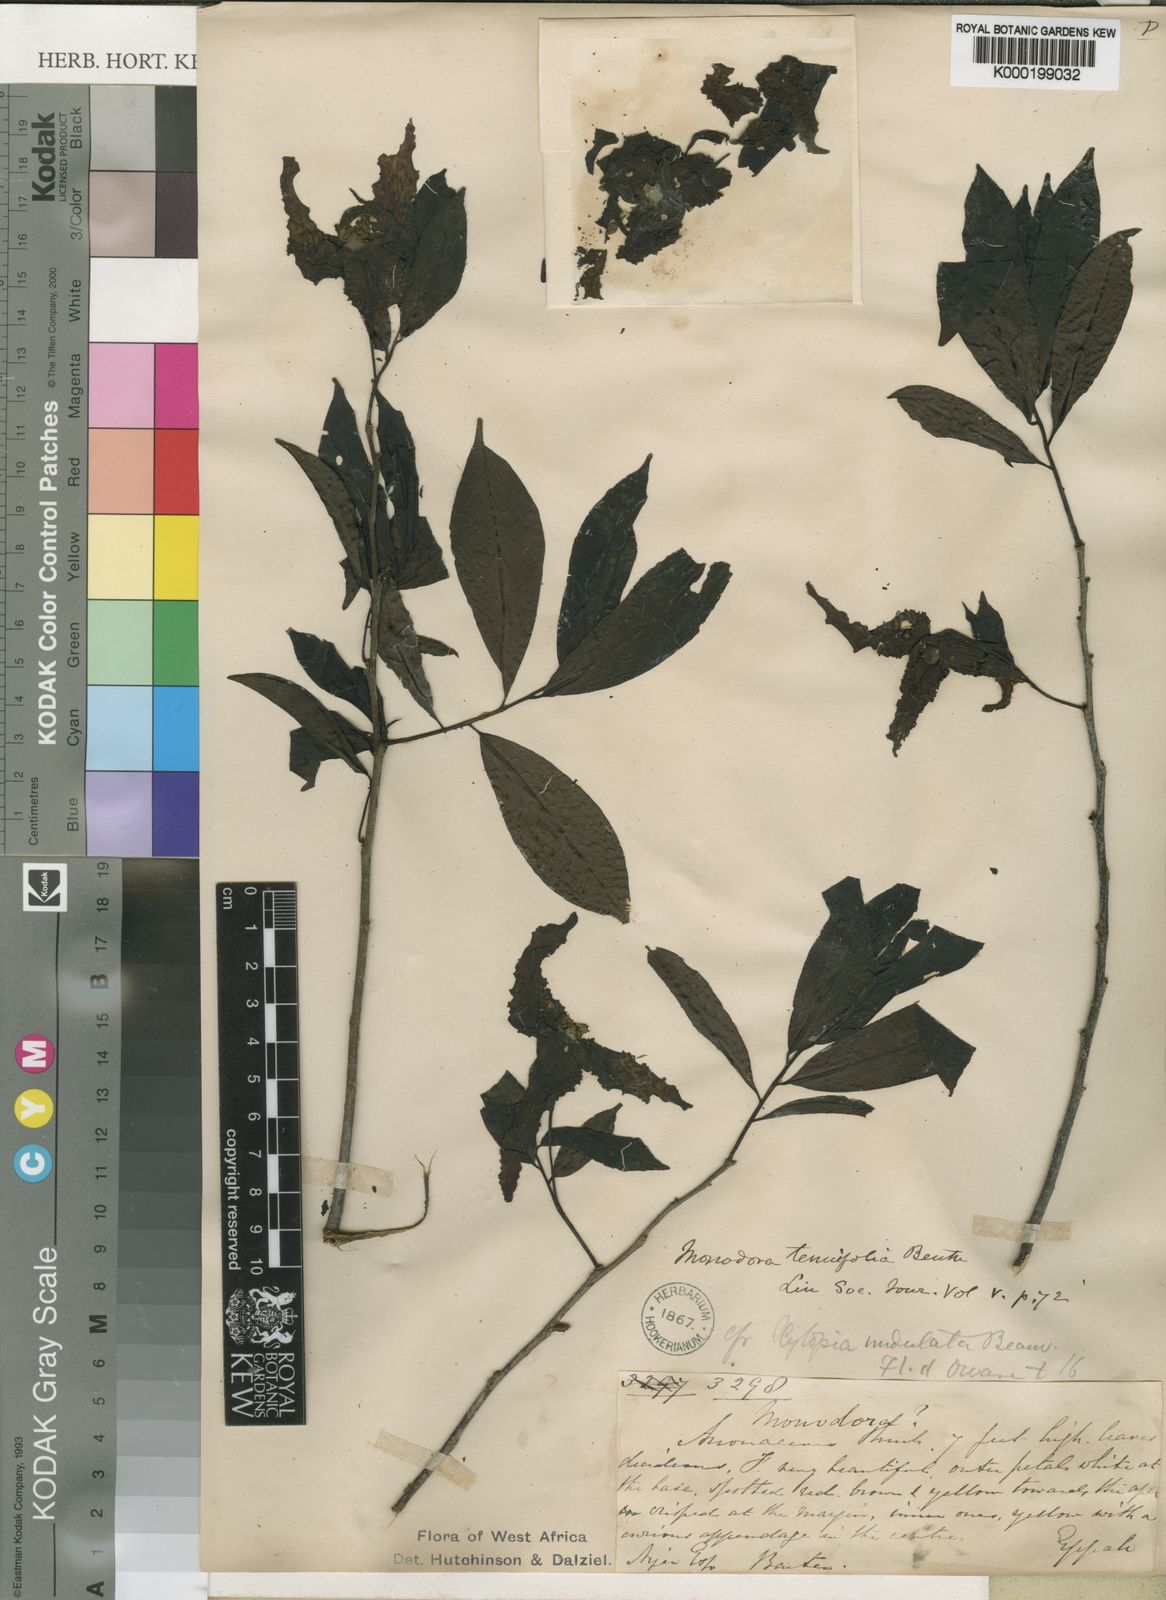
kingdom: Plantae
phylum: Tracheophyta
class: Magnoliopsida
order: Magnoliales
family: Annonaceae
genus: Monodora
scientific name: Monodora tenuifolia
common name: Orchidtree
